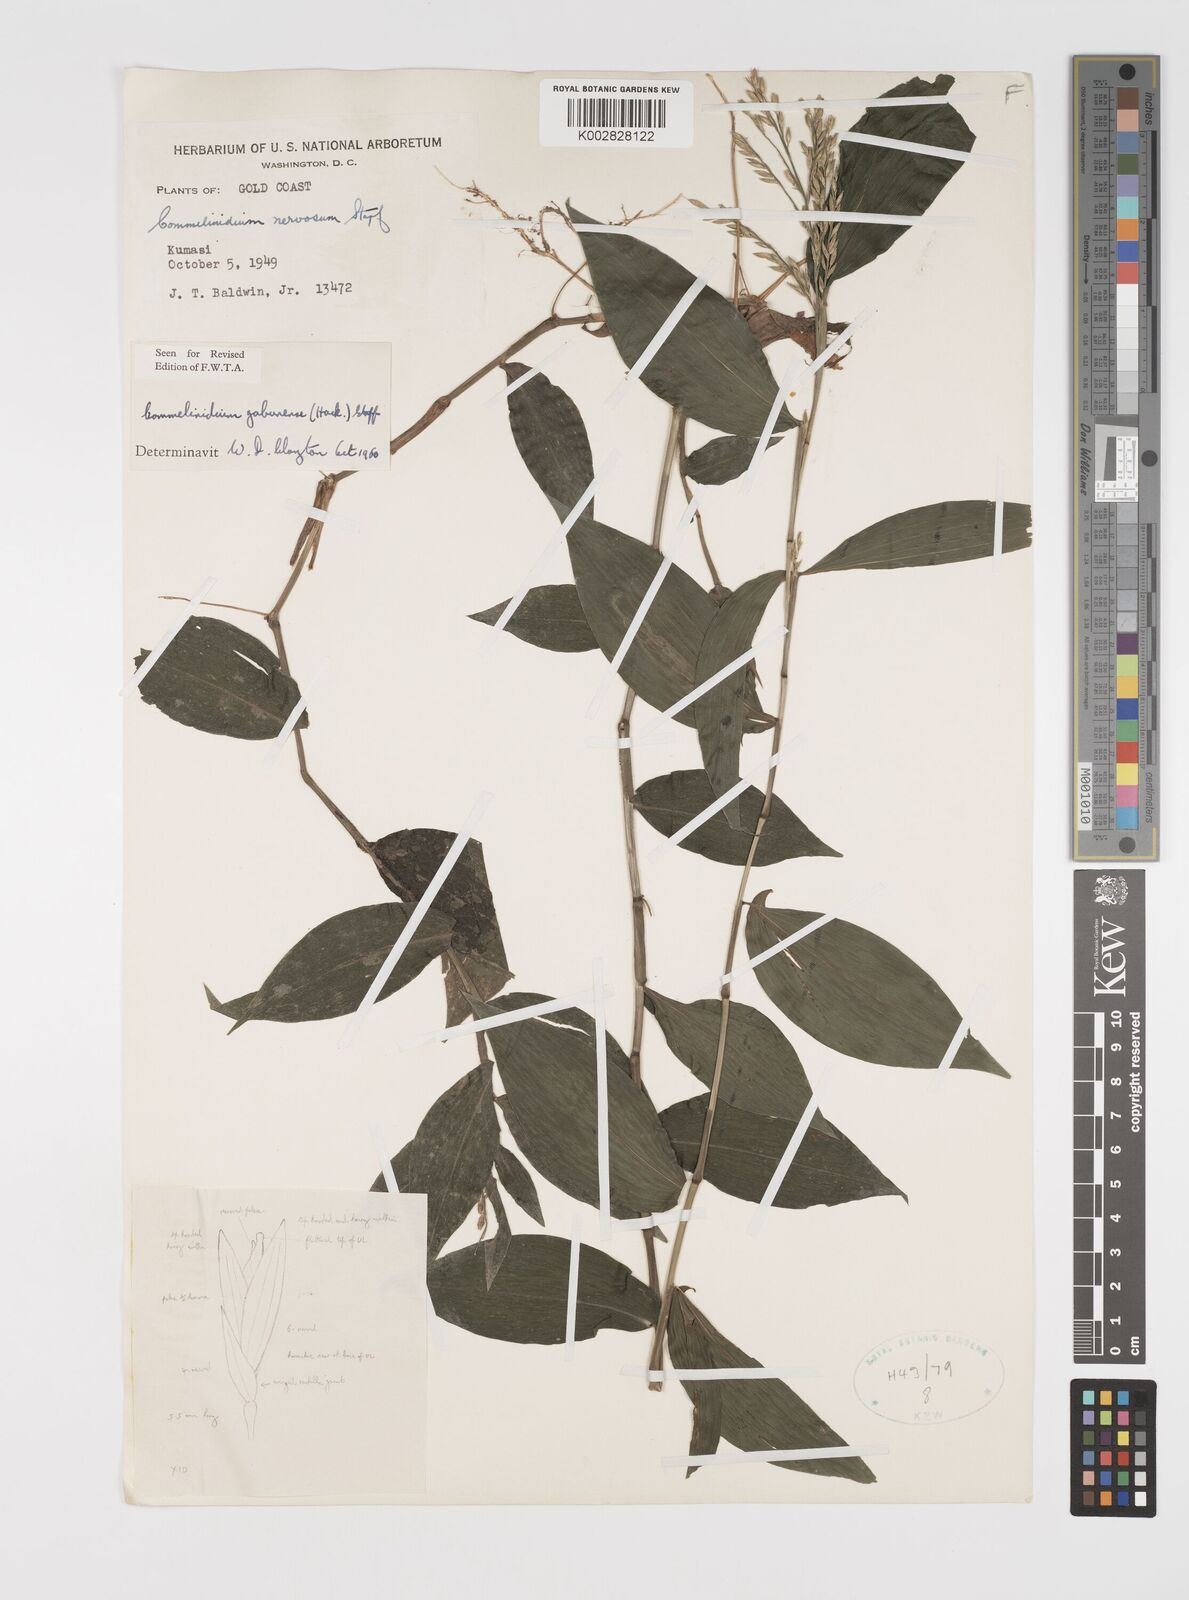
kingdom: Plantae
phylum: Tracheophyta
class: Liliopsida
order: Poales
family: Poaceae
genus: Acroceras
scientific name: Acroceras gabunense
